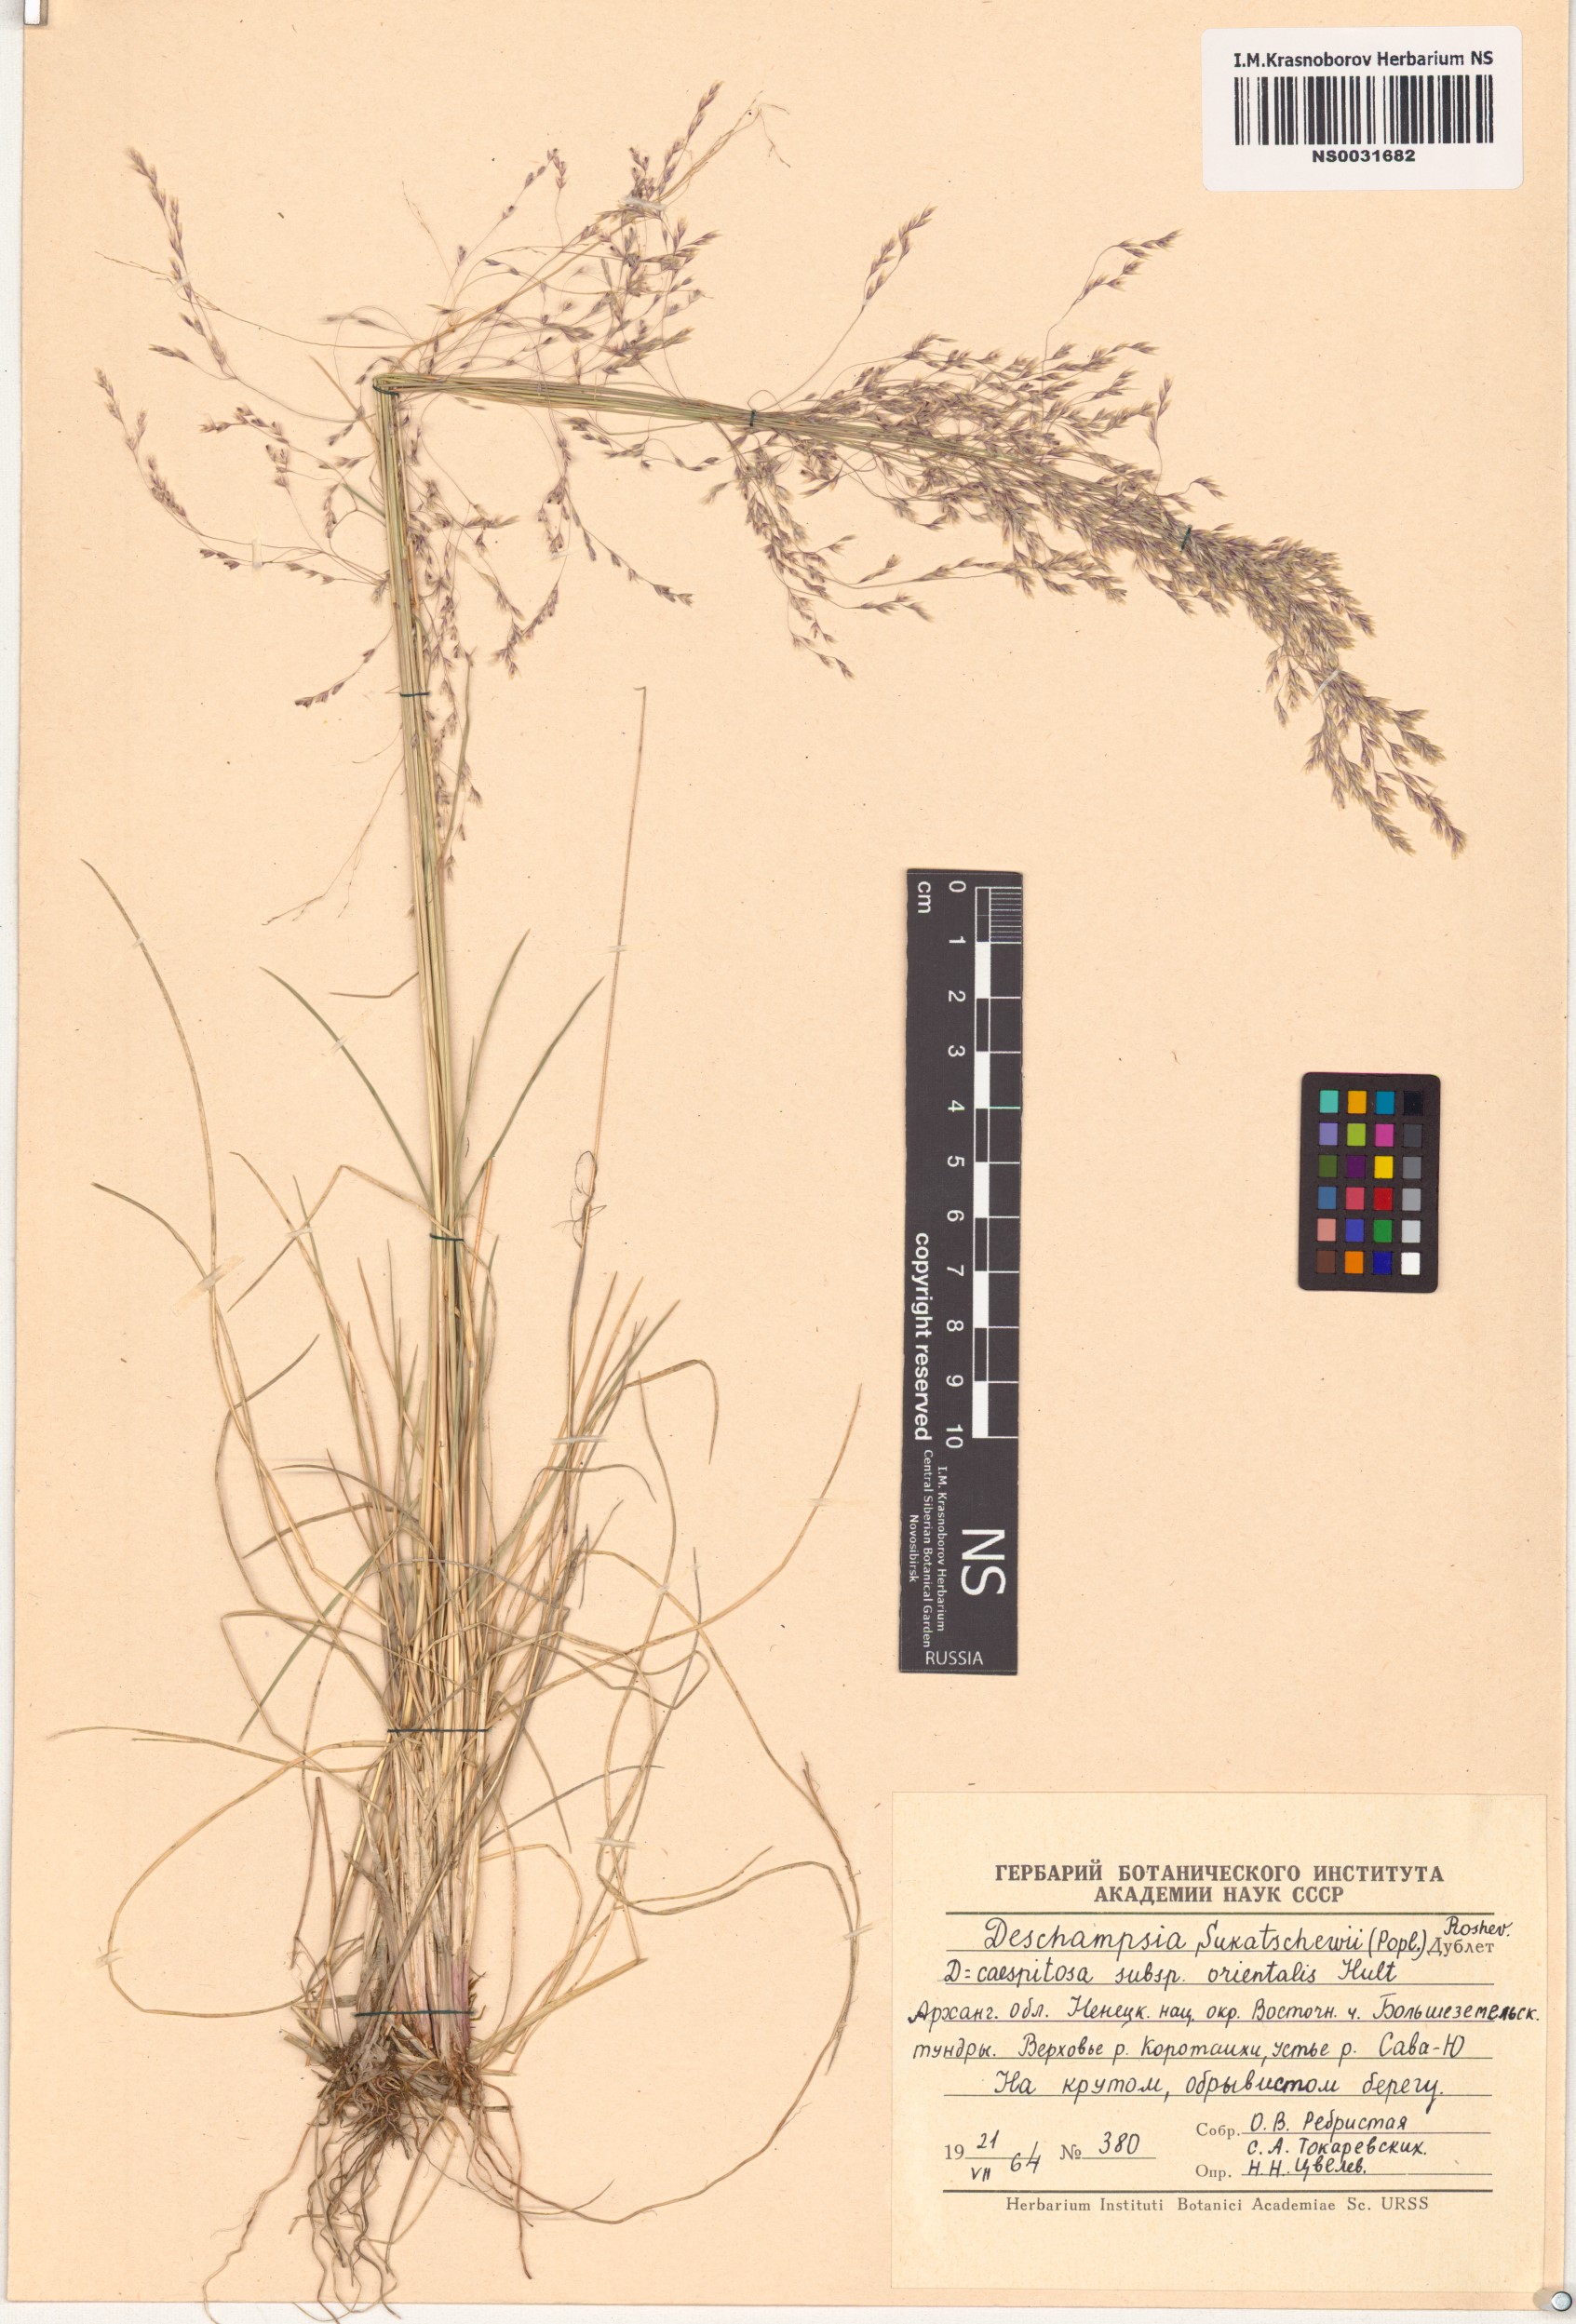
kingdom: Plantae
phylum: Tracheophyta
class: Liliopsida
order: Poales
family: Poaceae
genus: Deschampsia
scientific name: Deschampsia cespitosa
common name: Tufted hair-grass
